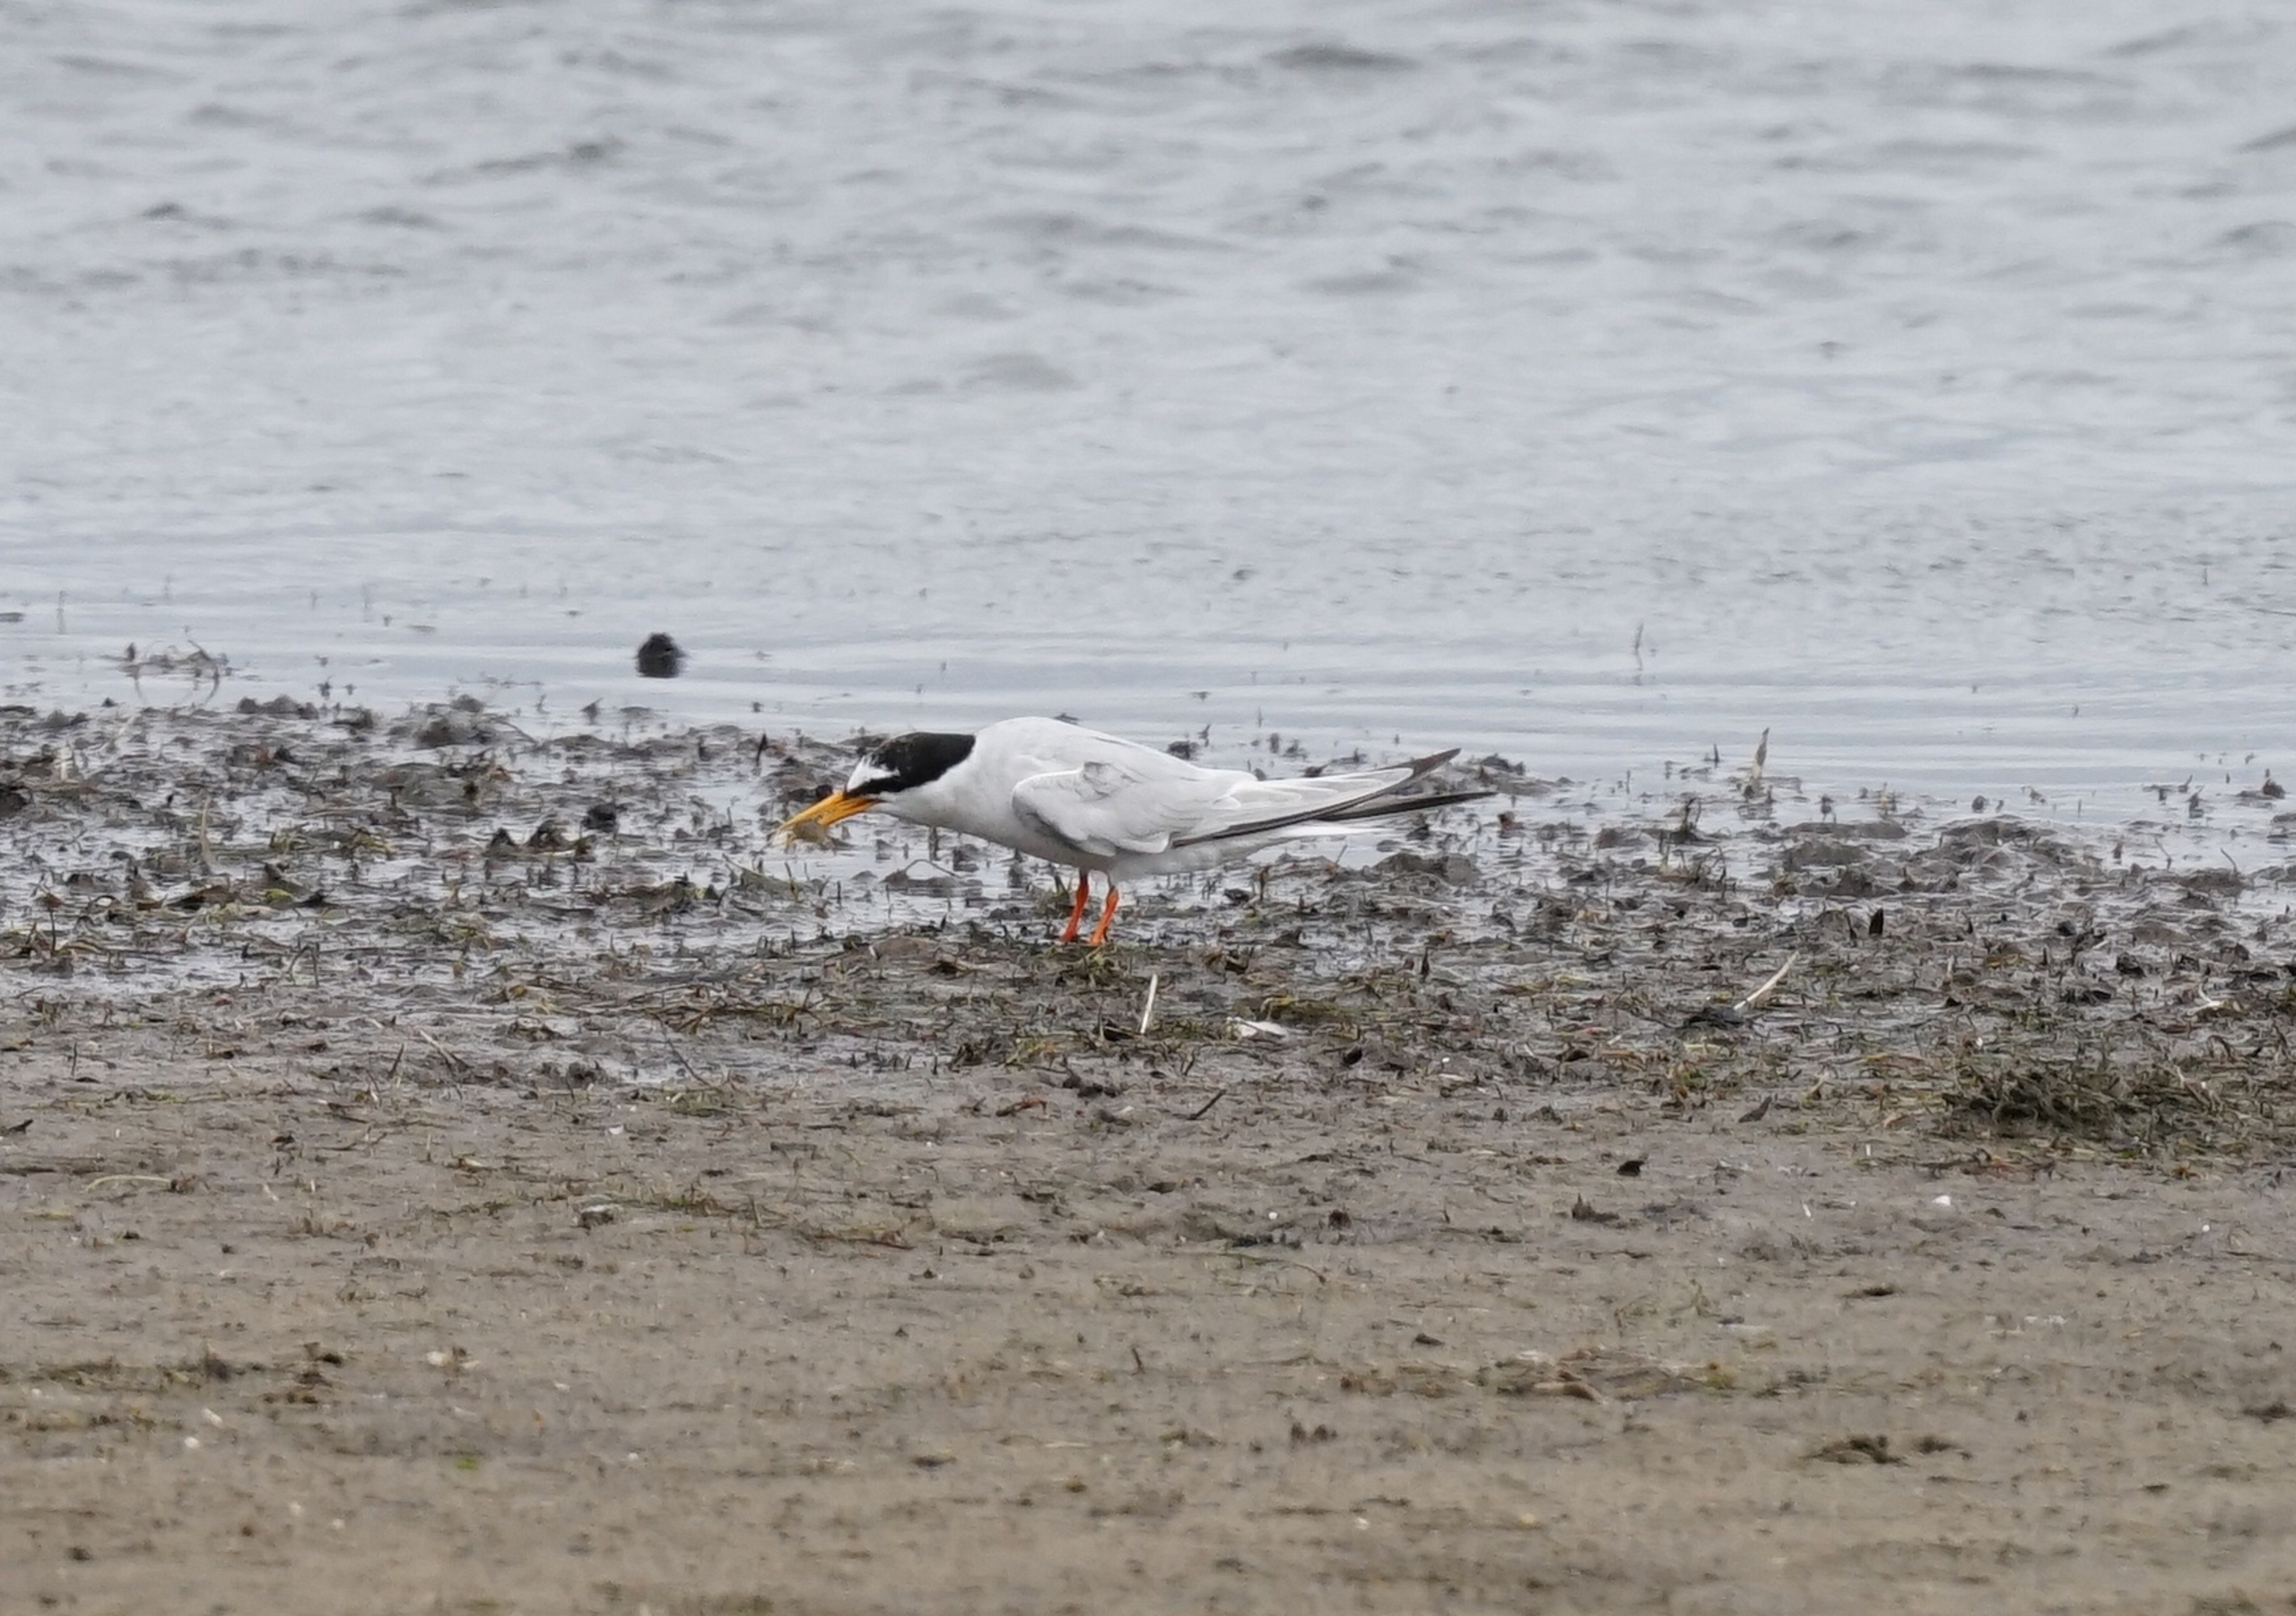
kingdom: Animalia
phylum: Chordata
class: Aves
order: Charadriiformes
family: Laridae
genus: Sternula
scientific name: Sternula albifrons
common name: Dværgterne
